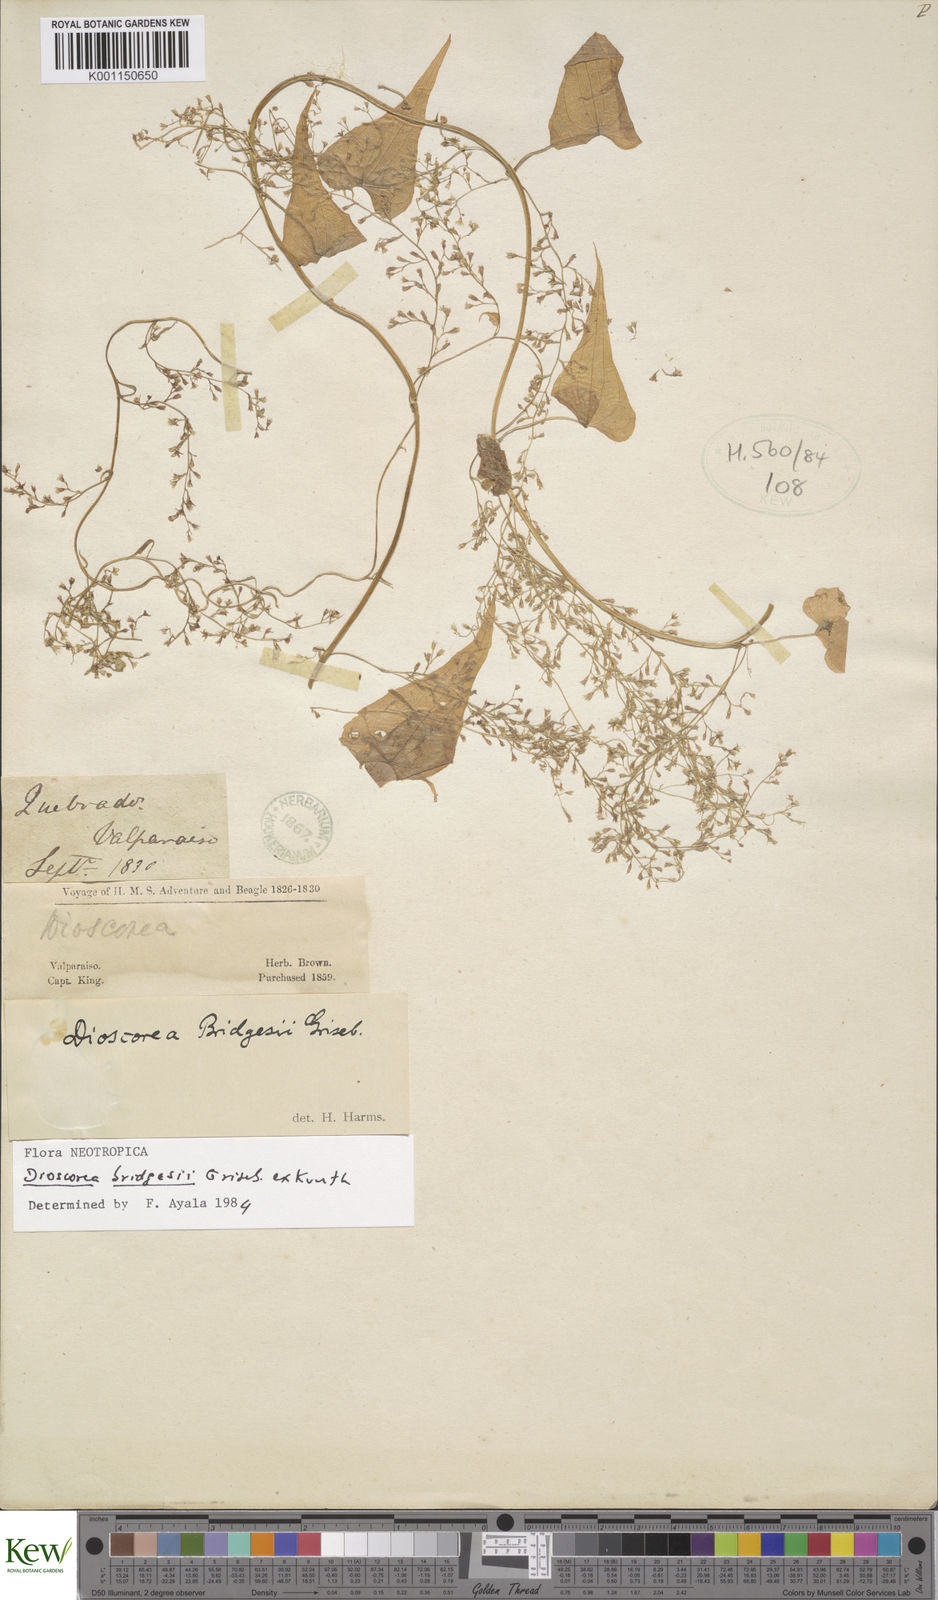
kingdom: Plantae
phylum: Tracheophyta
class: Liliopsida
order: Dioscoreales
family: Dioscoreaceae
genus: Dioscorea
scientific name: Dioscorea bridgesii
